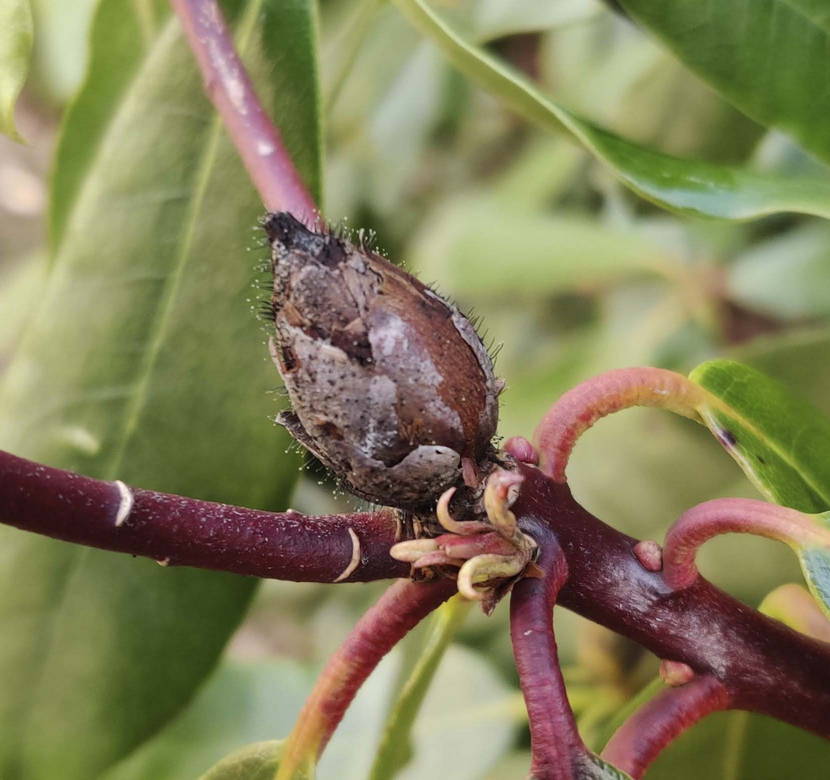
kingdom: Fungi
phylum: Ascomycota
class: Dothideomycetes
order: Pleosporales
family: Melanommataceae
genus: Seifertia
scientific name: Seifertia azaleae
